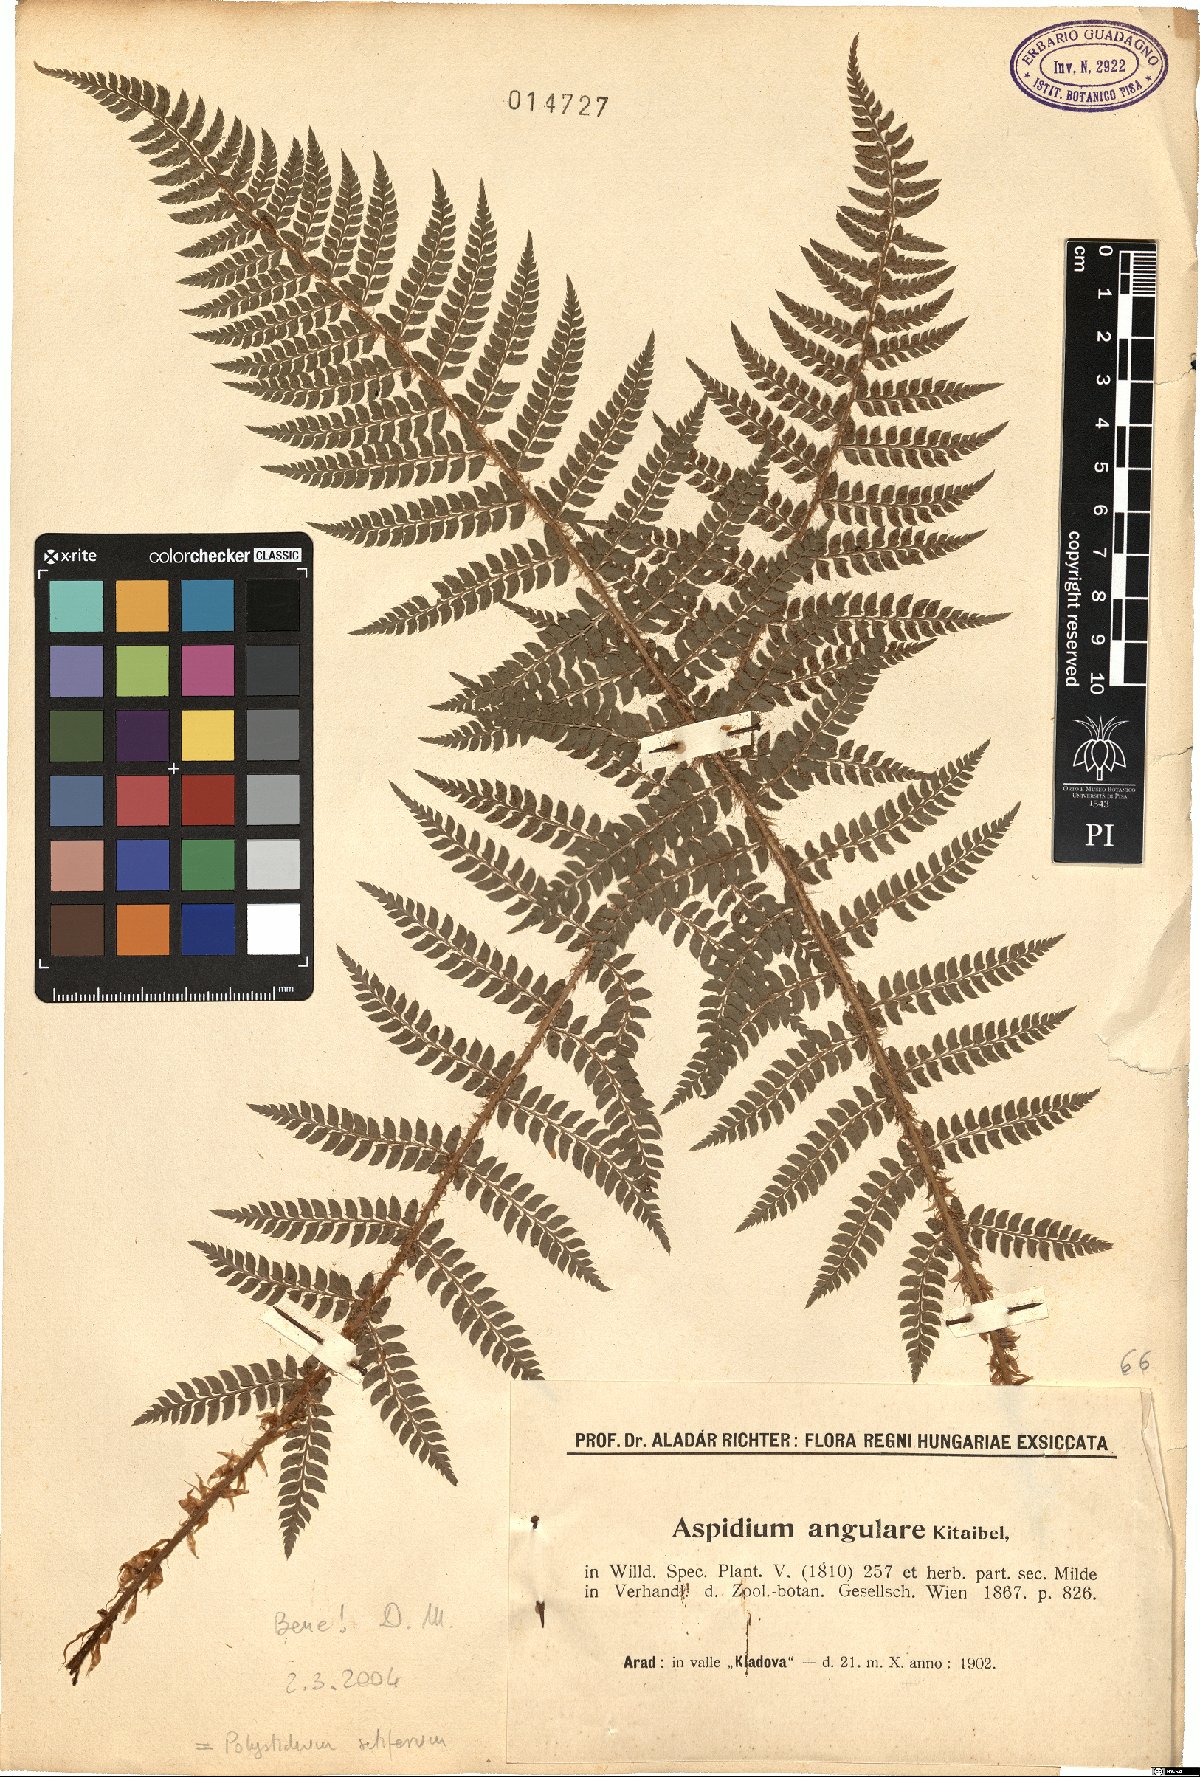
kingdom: Plantae
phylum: Tracheophyta
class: Polypodiopsida
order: Polypodiales
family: Dryopteridaceae
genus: Polystichum
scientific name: Polystichum setiferum
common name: Soft shield-fern
